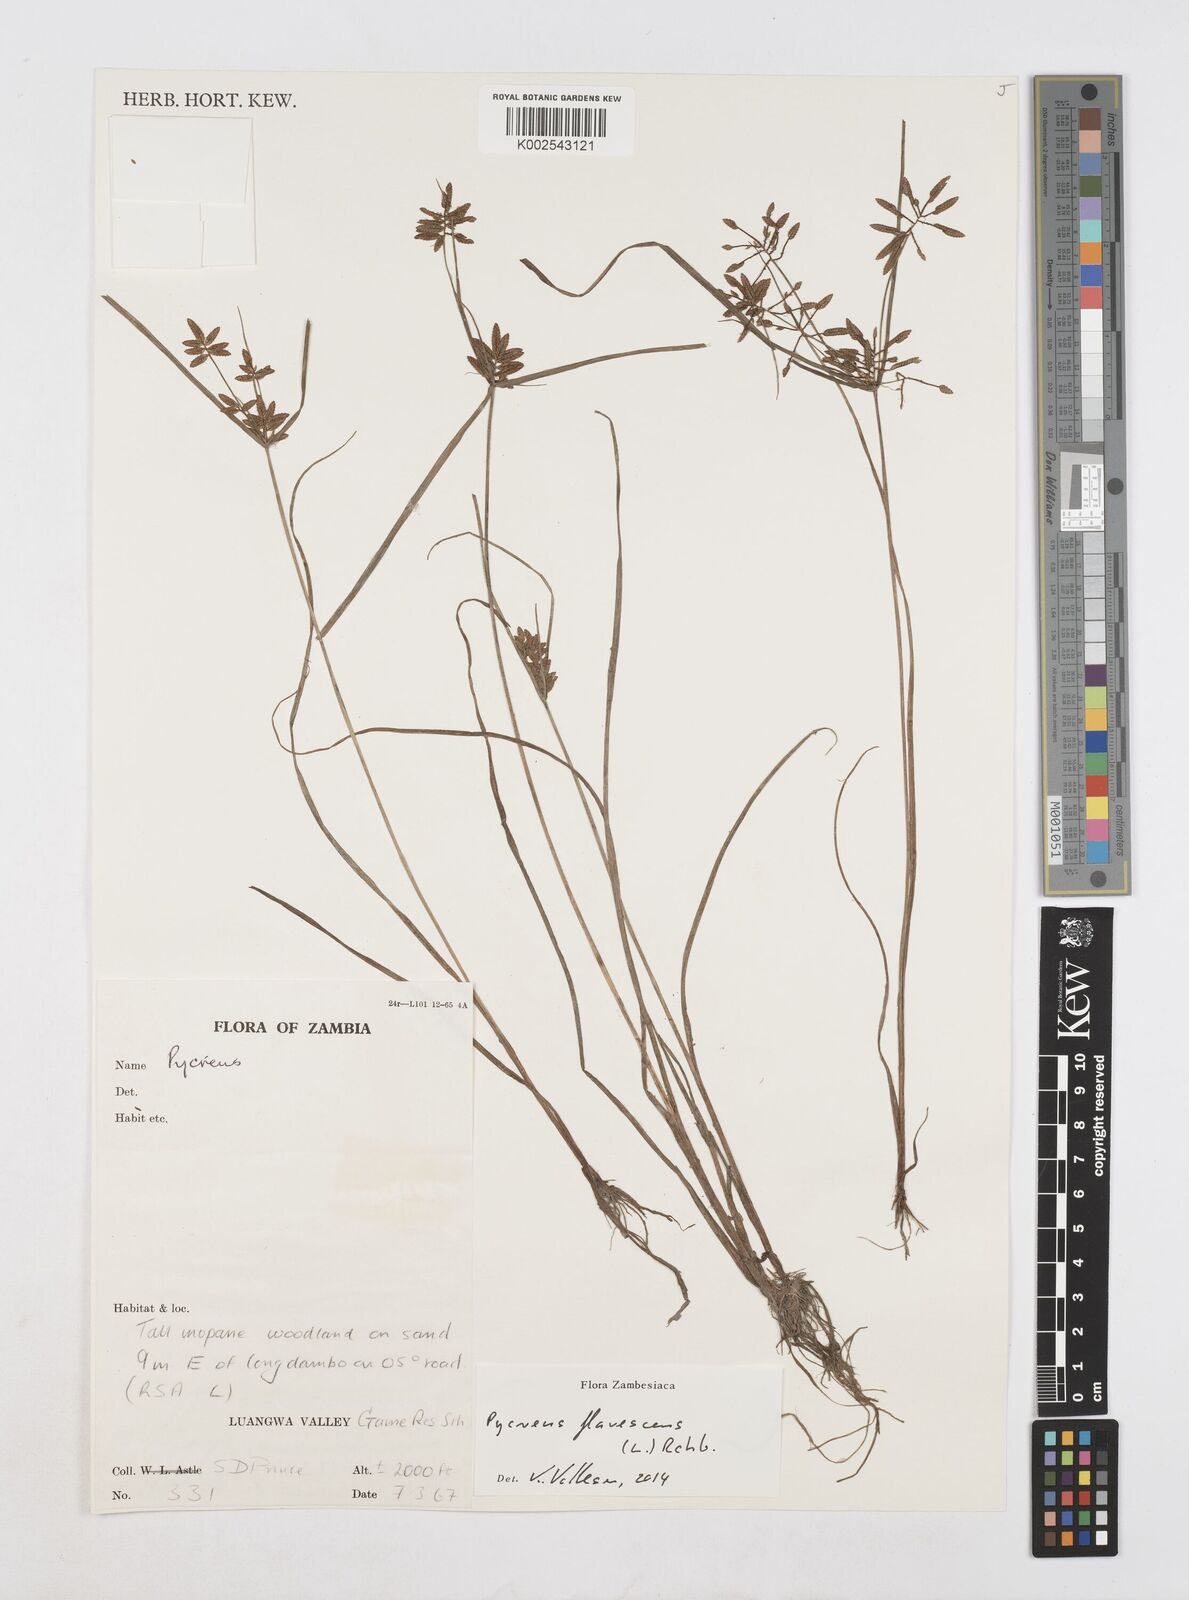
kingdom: Plantae
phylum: Tracheophyta
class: Liliopsida
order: Poales
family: Cyperaceae
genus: Cyperus
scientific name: Cyperus flavescens
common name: Yellow galingale
